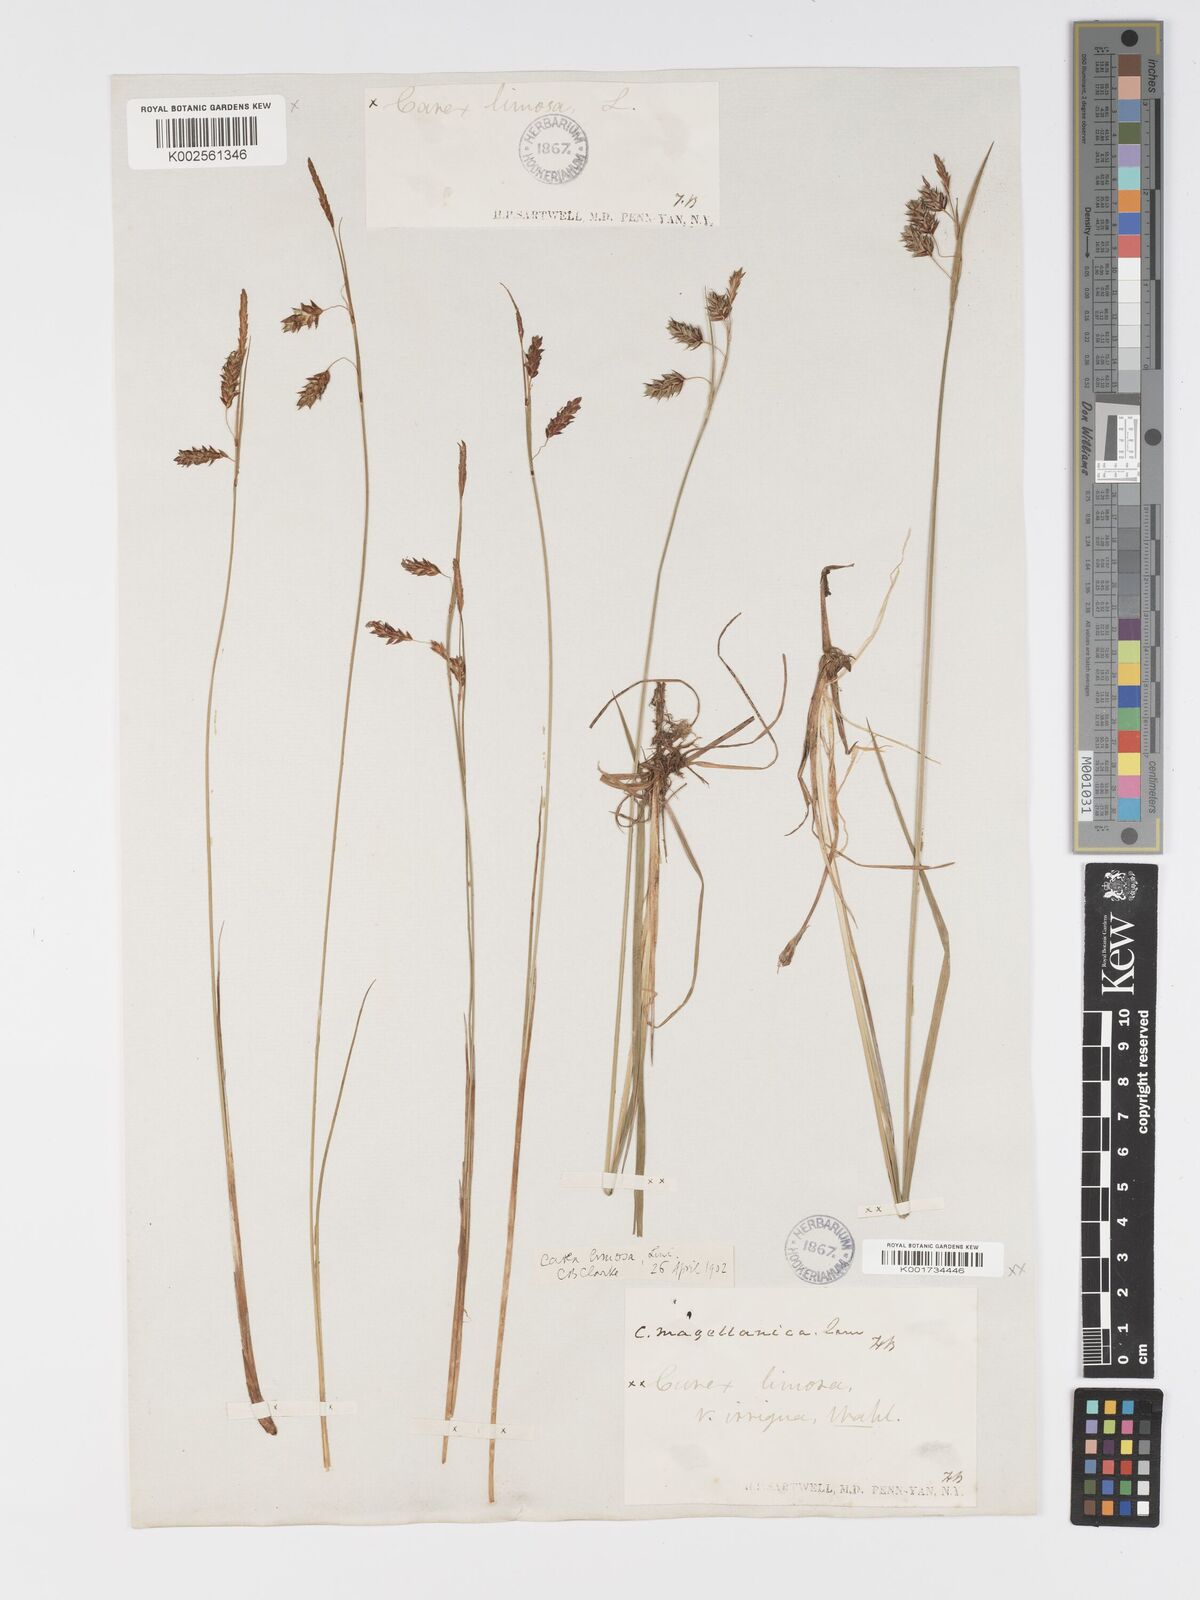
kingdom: Plantae
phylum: Tracheophyta
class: Liliopsida
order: Poales
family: Cyperaceae
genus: Carex
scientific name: Carex magellanica
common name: Bog sedge
